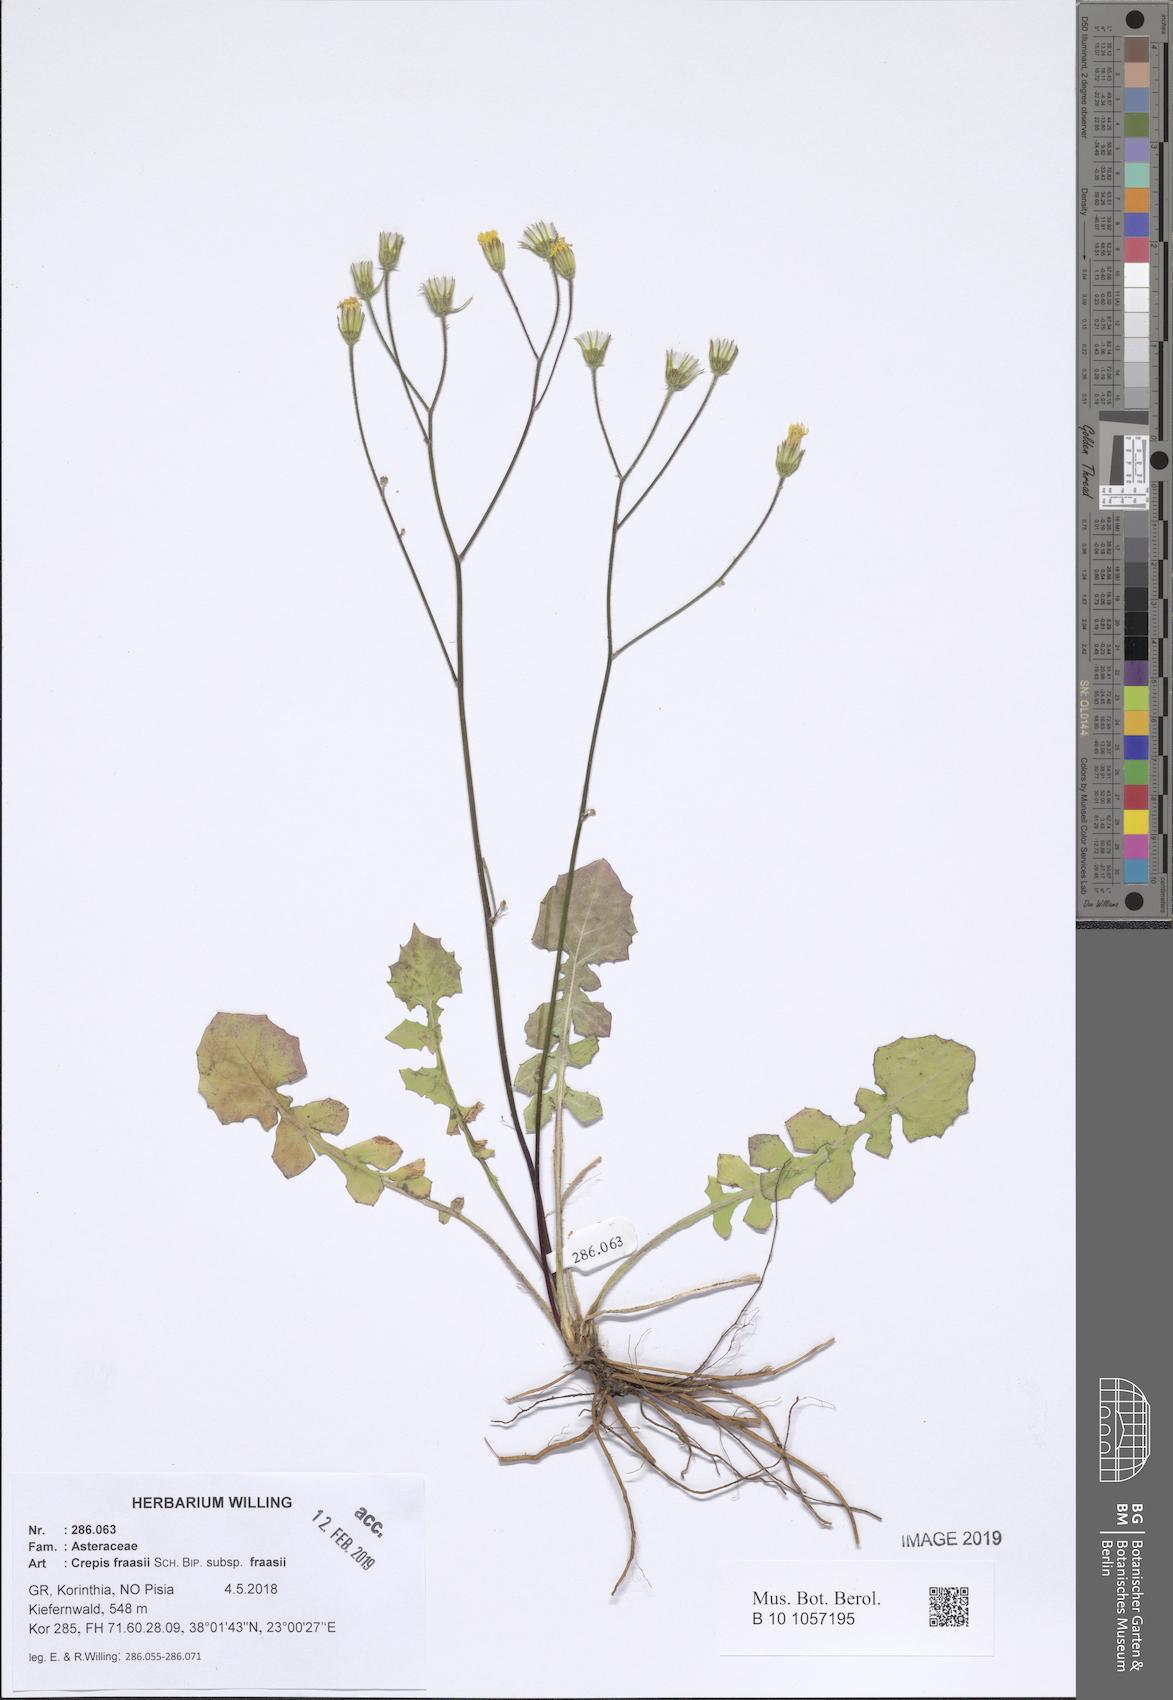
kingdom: Plantae
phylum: Tracheophyta
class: Magnoliopsida
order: Asterales
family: Asteraceae
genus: Crepis
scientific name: Crepis fraasii
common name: Hawk's-beard
